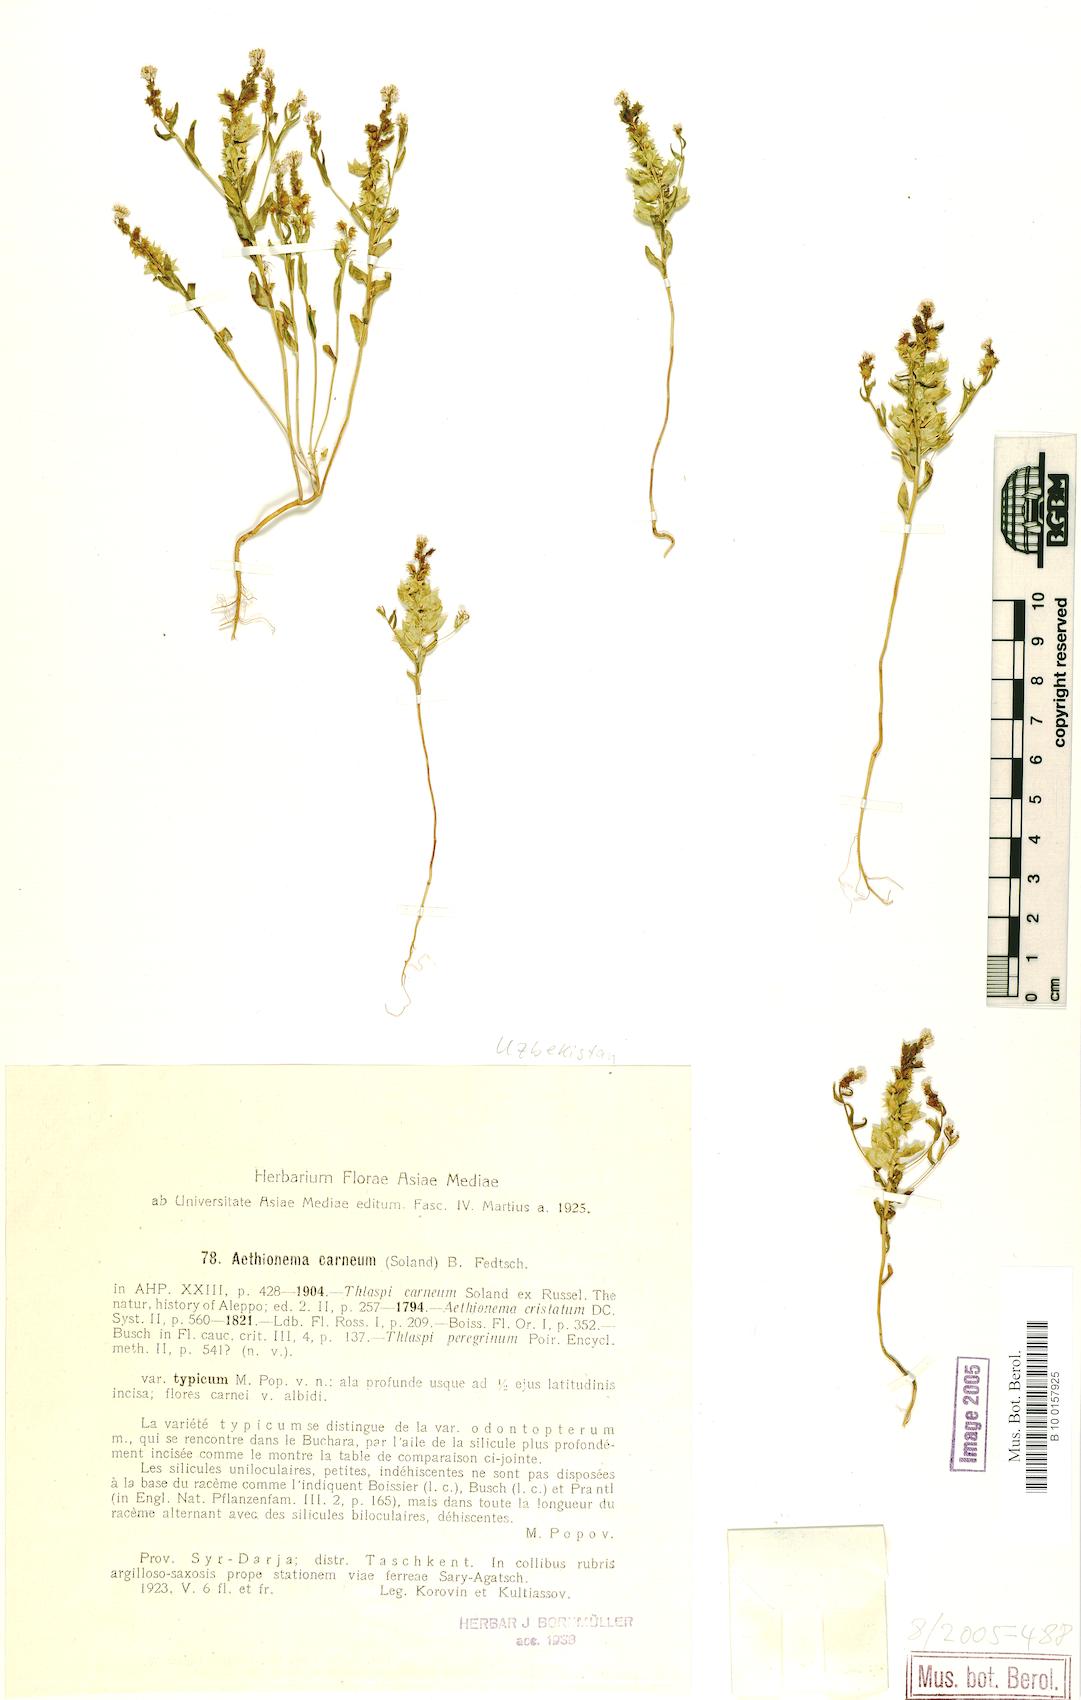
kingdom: Plantae
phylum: Tracheophyta
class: Magnoliopsida
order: Brassicales
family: Brassicaceae
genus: Aethionema
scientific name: Aethionema carneum
